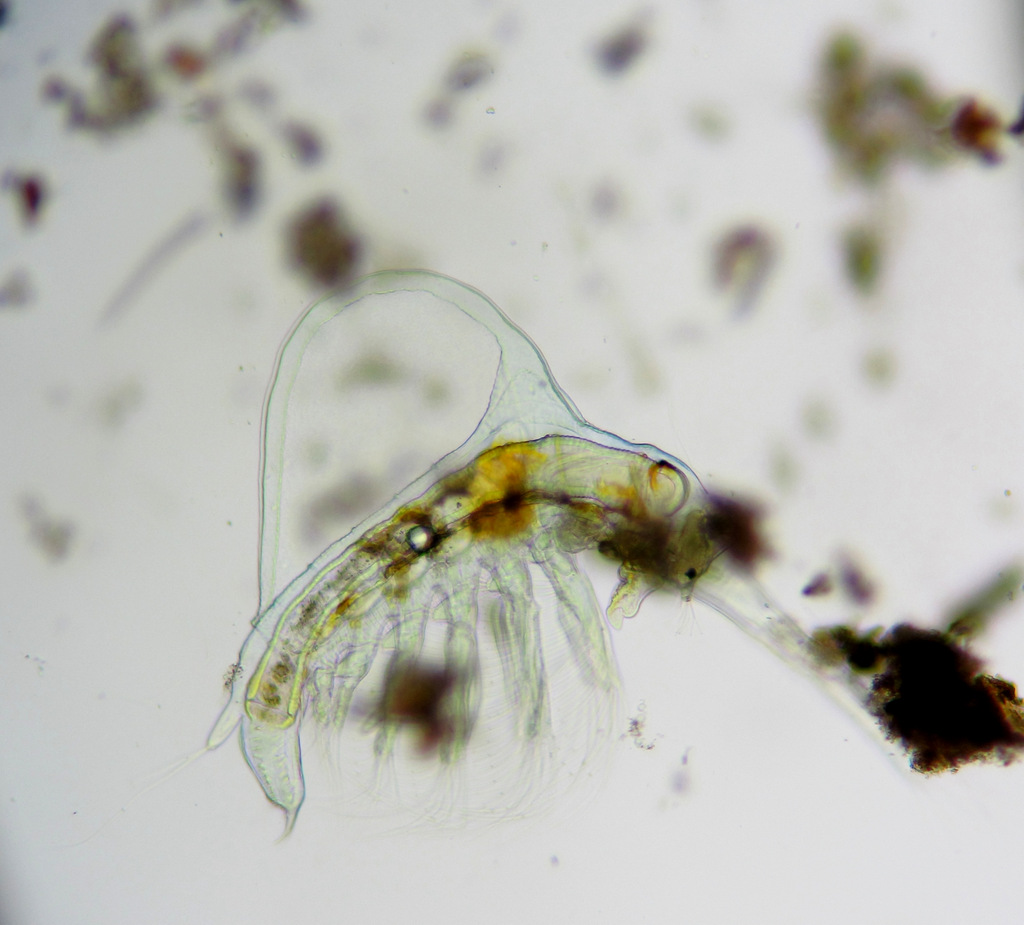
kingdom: Animalia
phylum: Arthropoda
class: Branchiopoda
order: Diplostraca
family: Holopediidae
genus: Holopedium
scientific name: Holopedium gibberum
